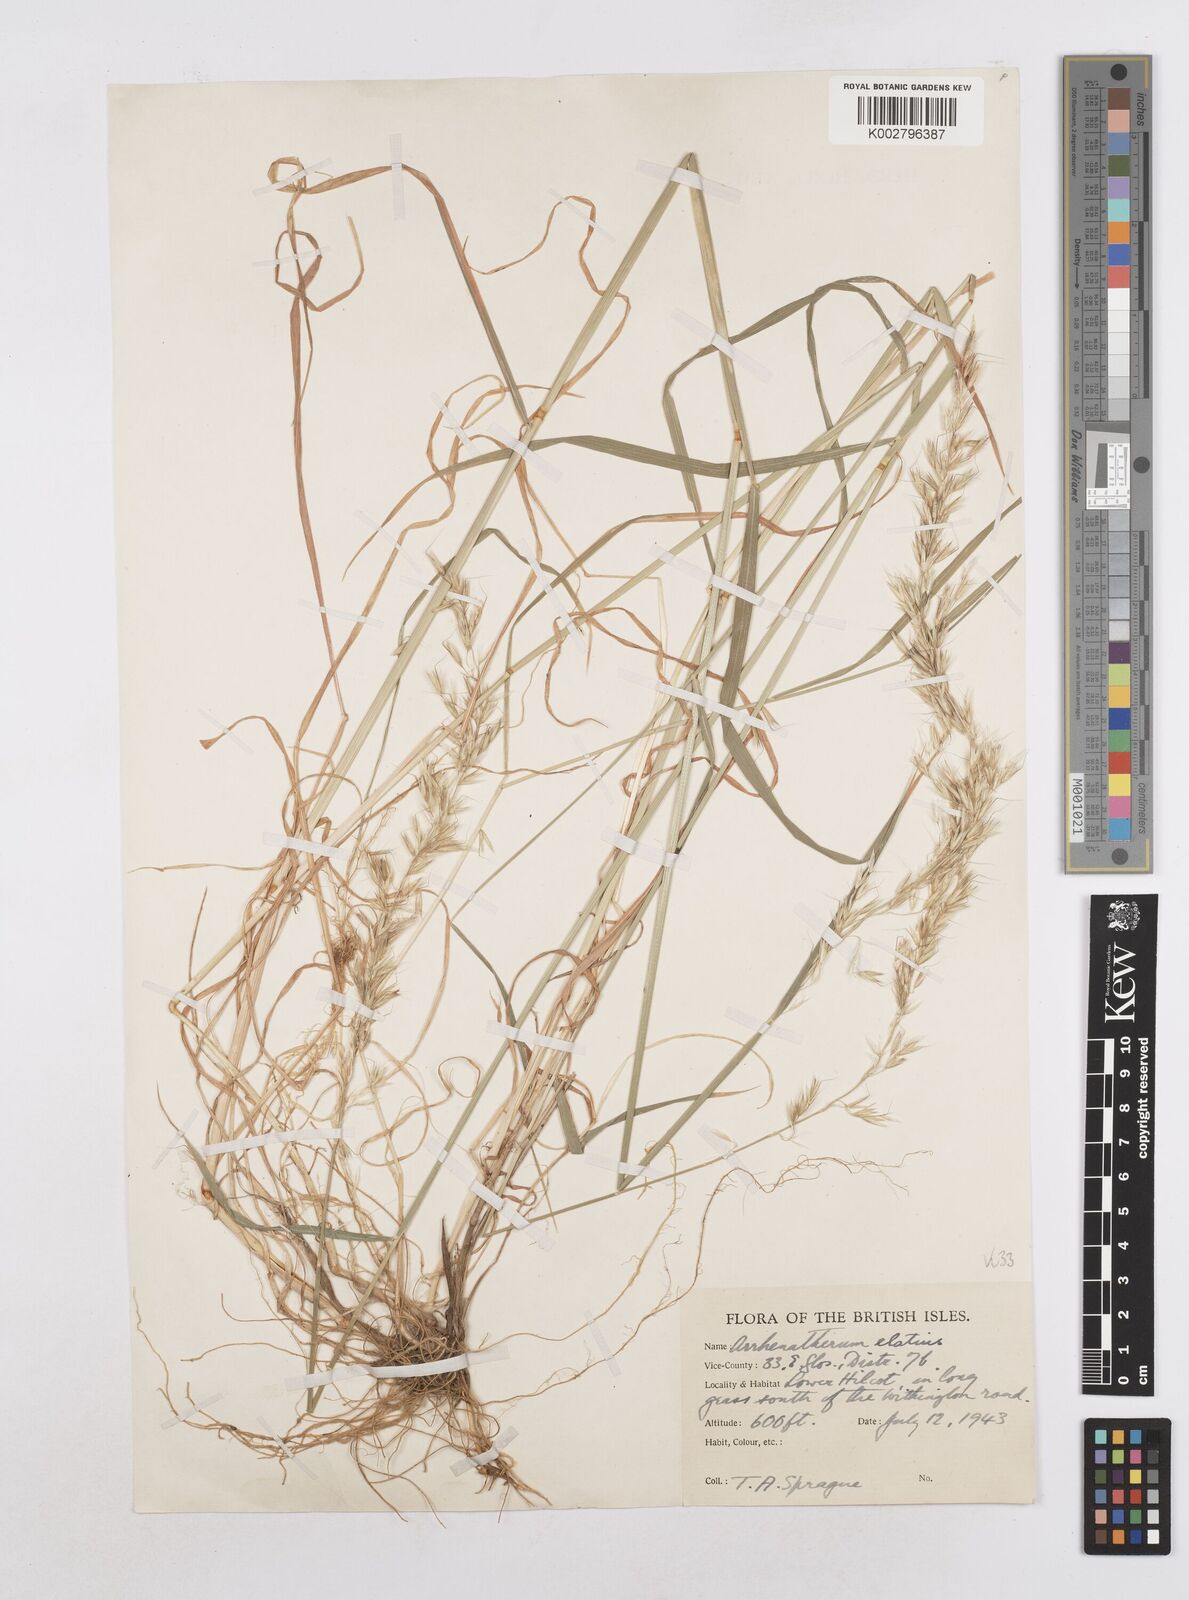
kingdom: Plantae
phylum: Tracheophyta
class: Liliopsida
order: Poales
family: Poaceae
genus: Arrhenatherum
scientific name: Arrhenatherum elatius
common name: Tall oatgrass
